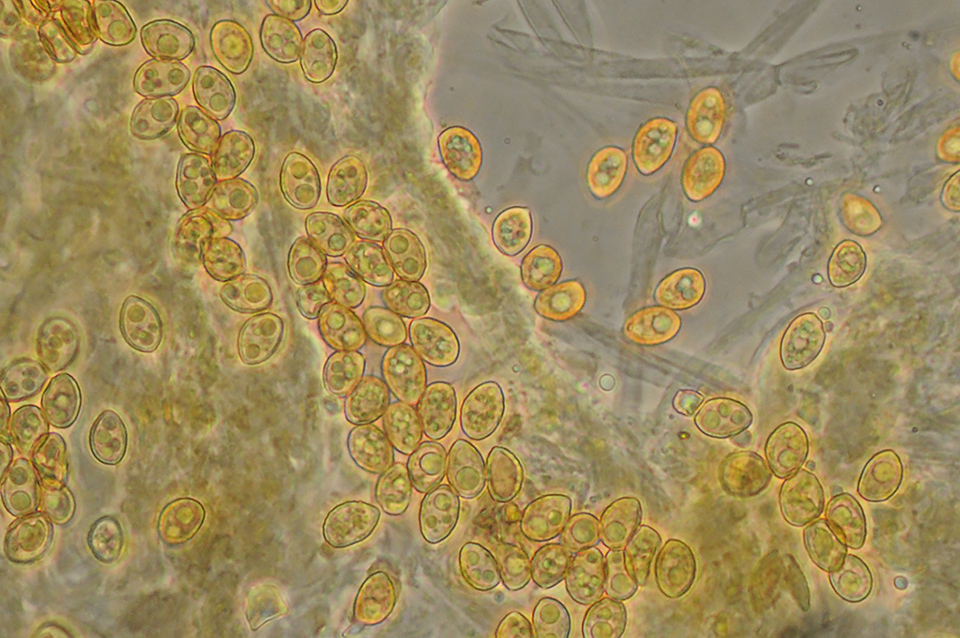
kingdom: Fungi
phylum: Basidiomycota
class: Agaricomycetes
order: Agaricales
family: Hymenogastraceae
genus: Galerina
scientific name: Galerina vittiformis
